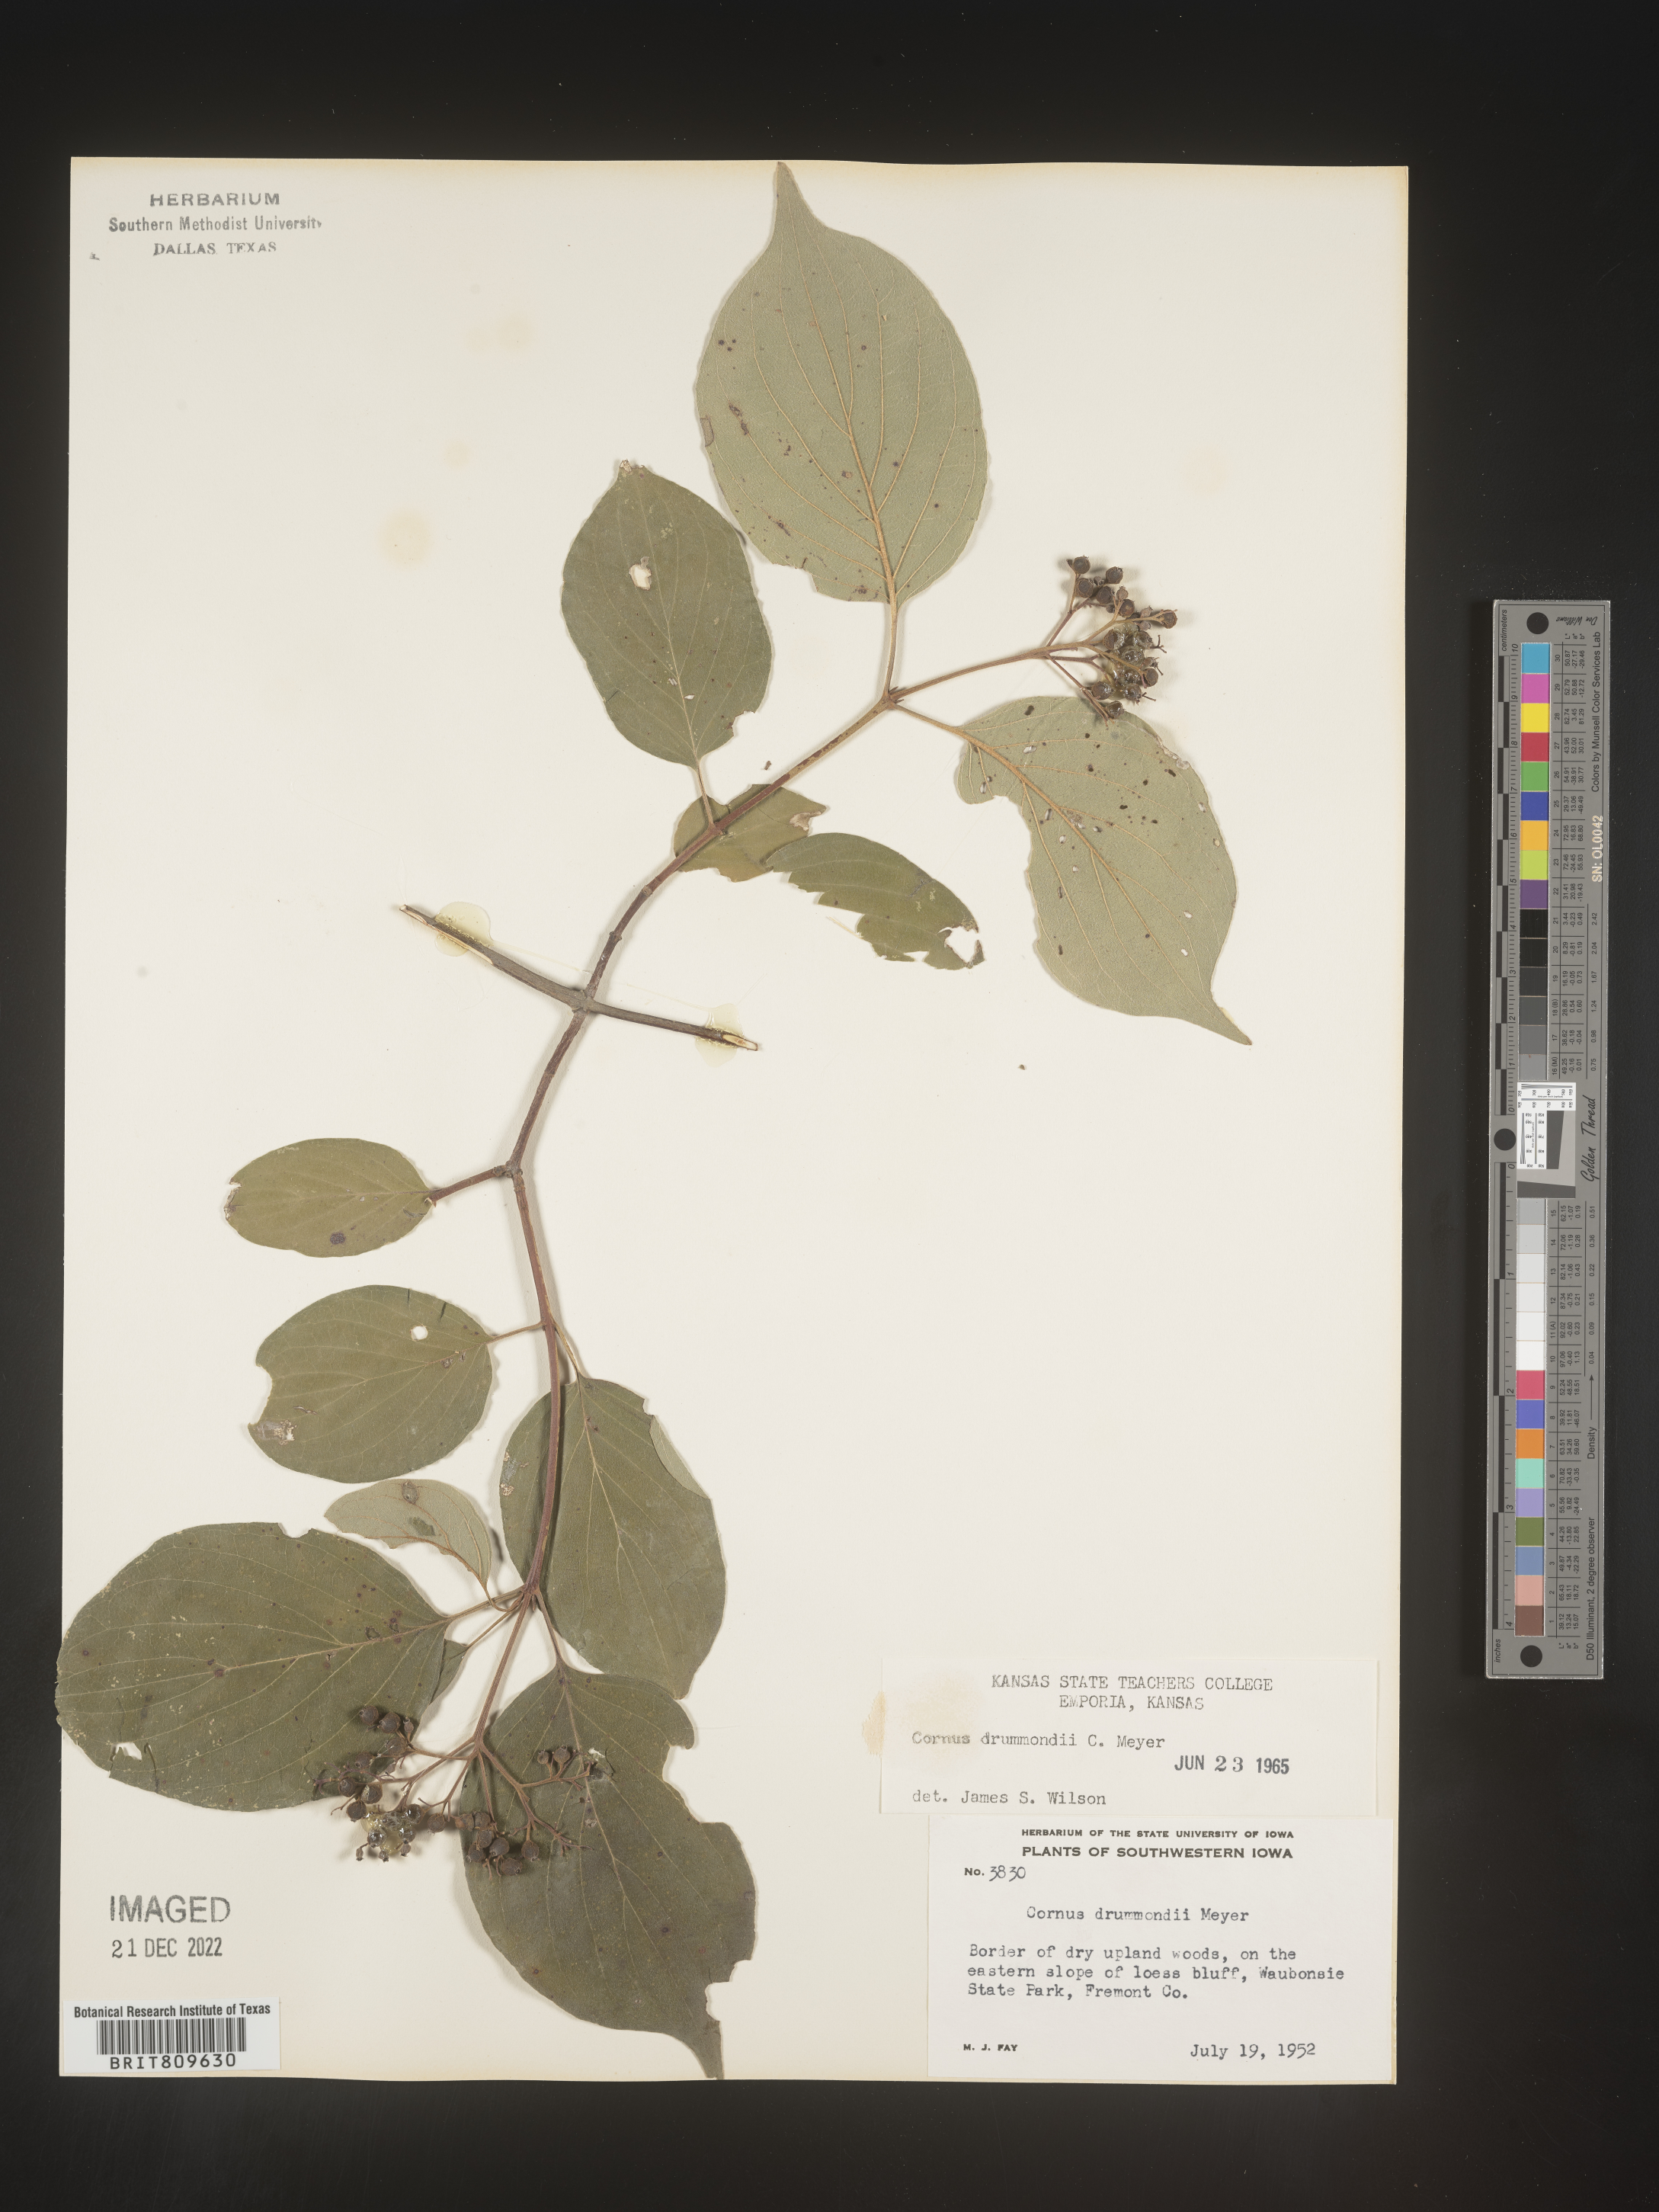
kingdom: Plantae
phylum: Tracheophyta
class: Magnoliopsida
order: Cornales
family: Cornaceae
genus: Cornus
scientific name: Cornus drummondii
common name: Rough-leaf dogwood
